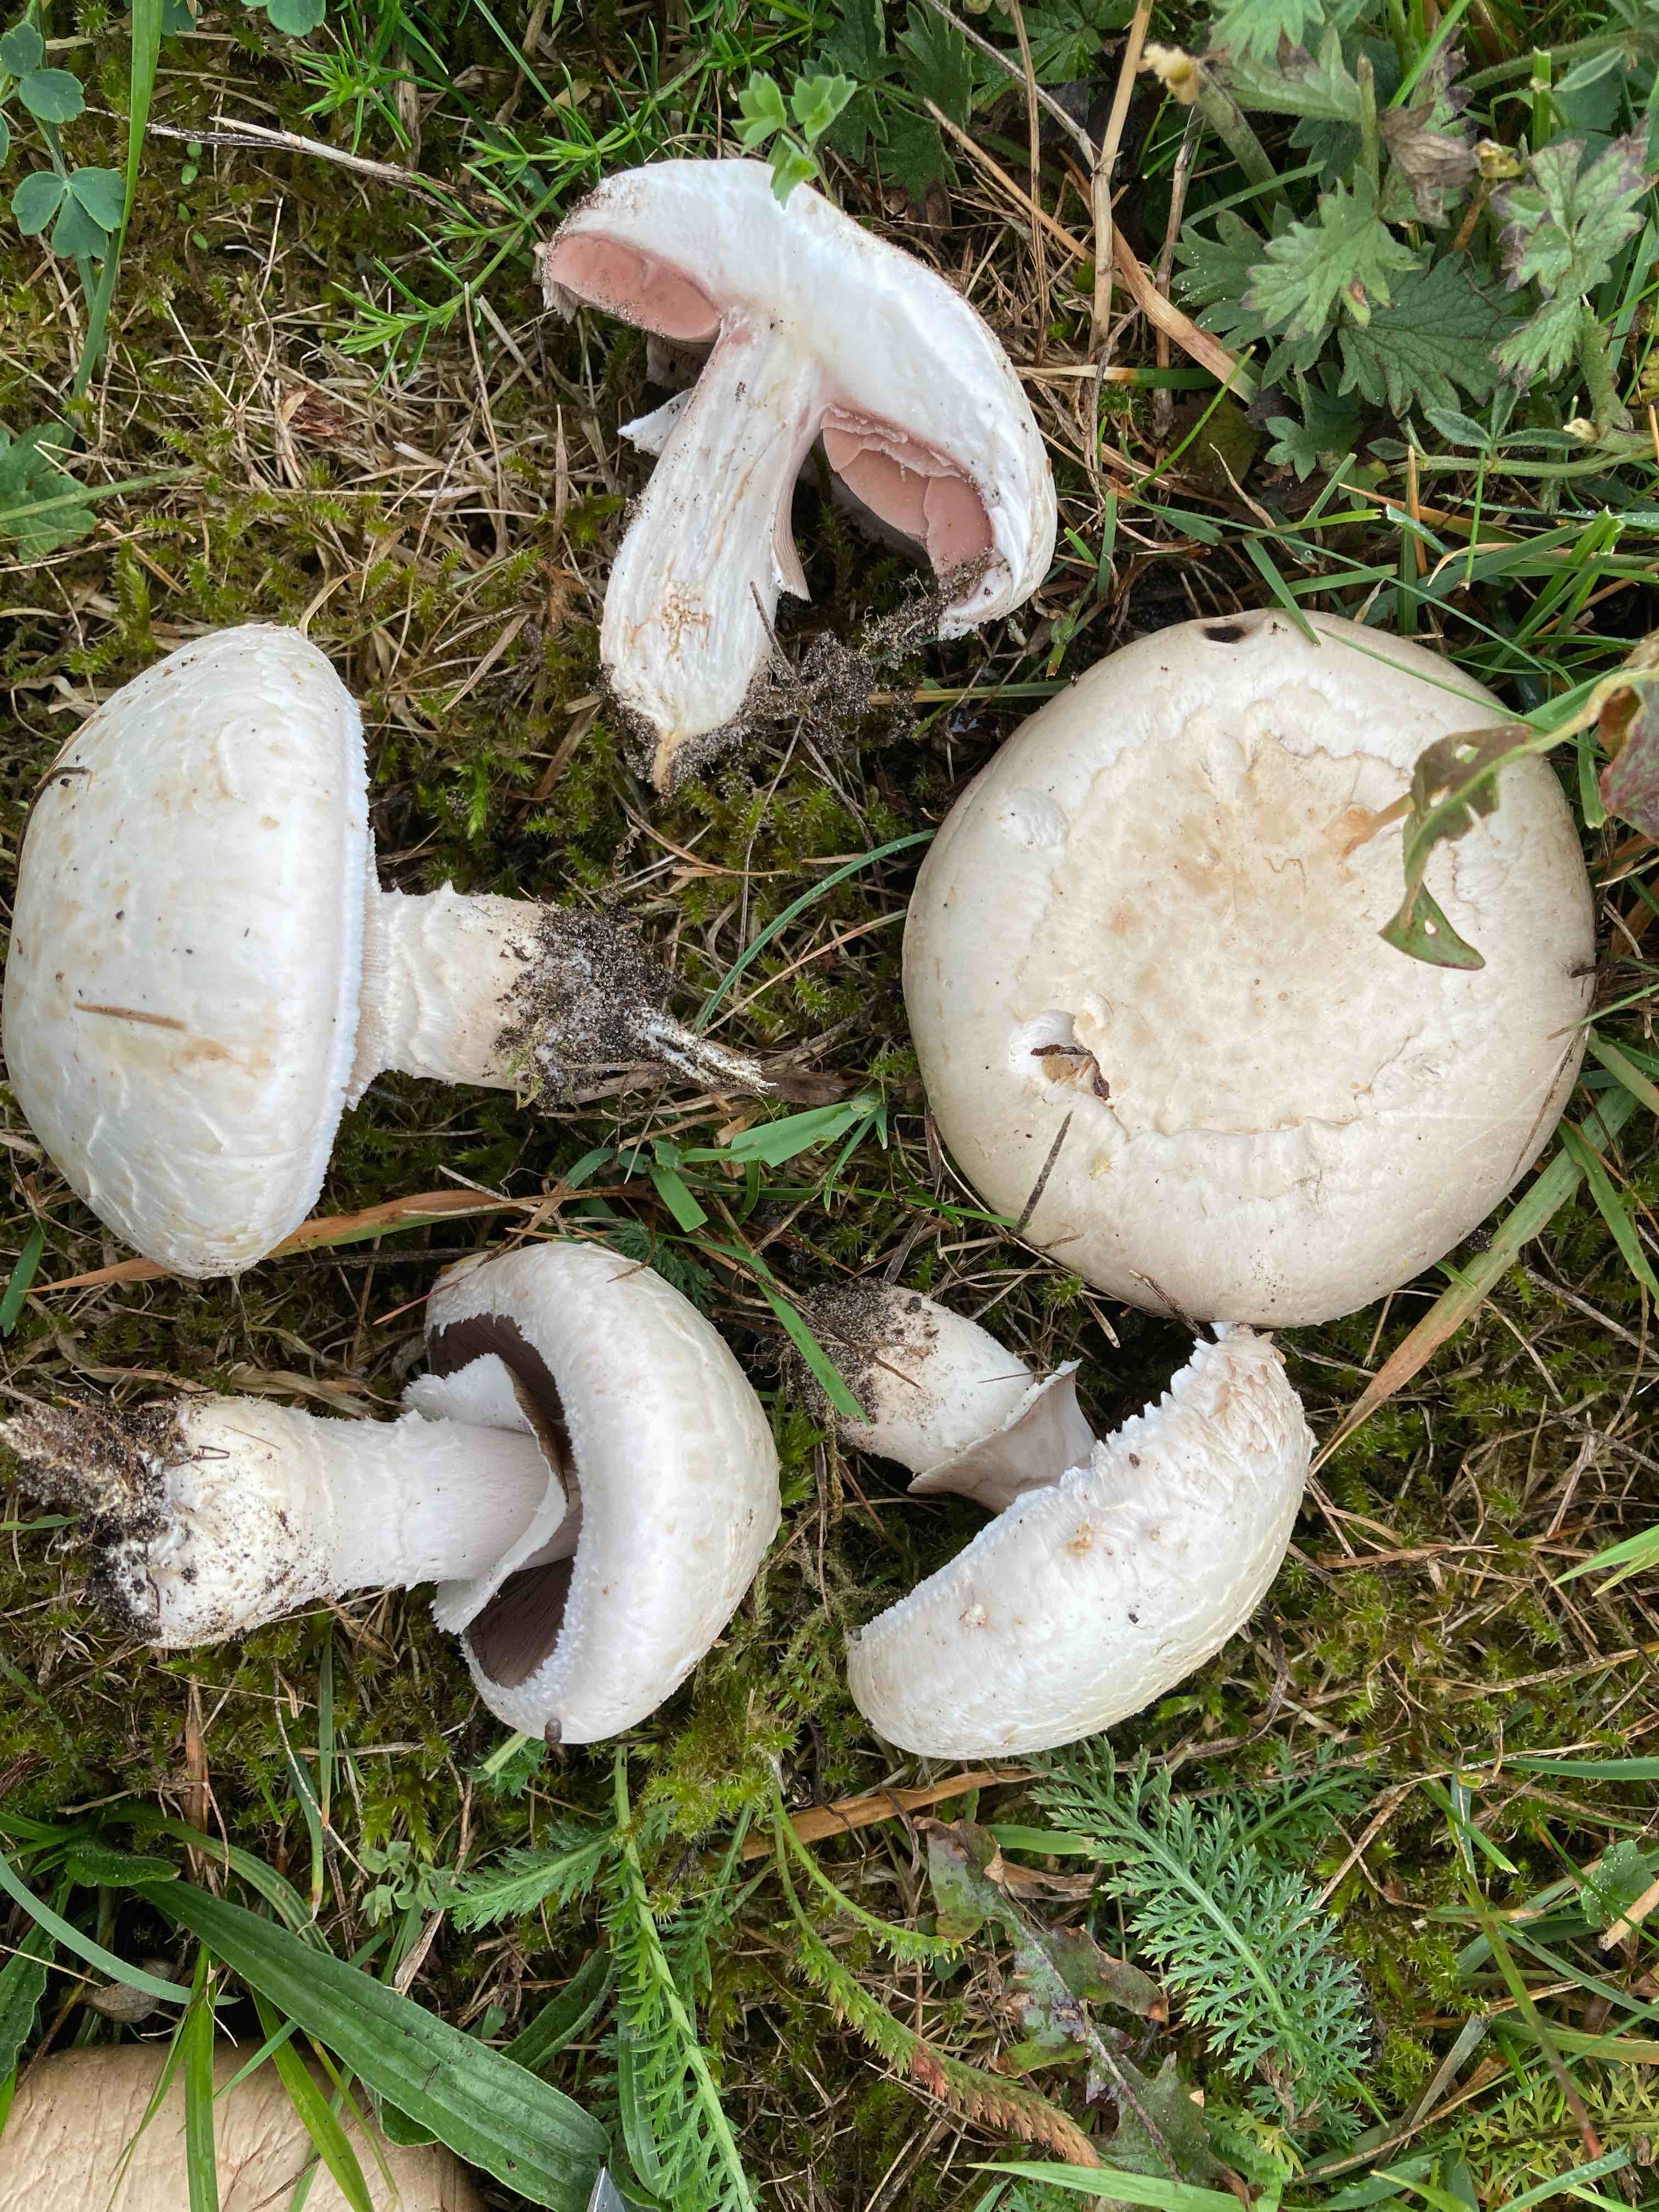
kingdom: Fungi
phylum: Basidiomycota
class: Agaricomycetes
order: Agaricales
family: Agaricaceae
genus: Agaricus
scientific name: Agaricus litoralis
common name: kyst-champignon
